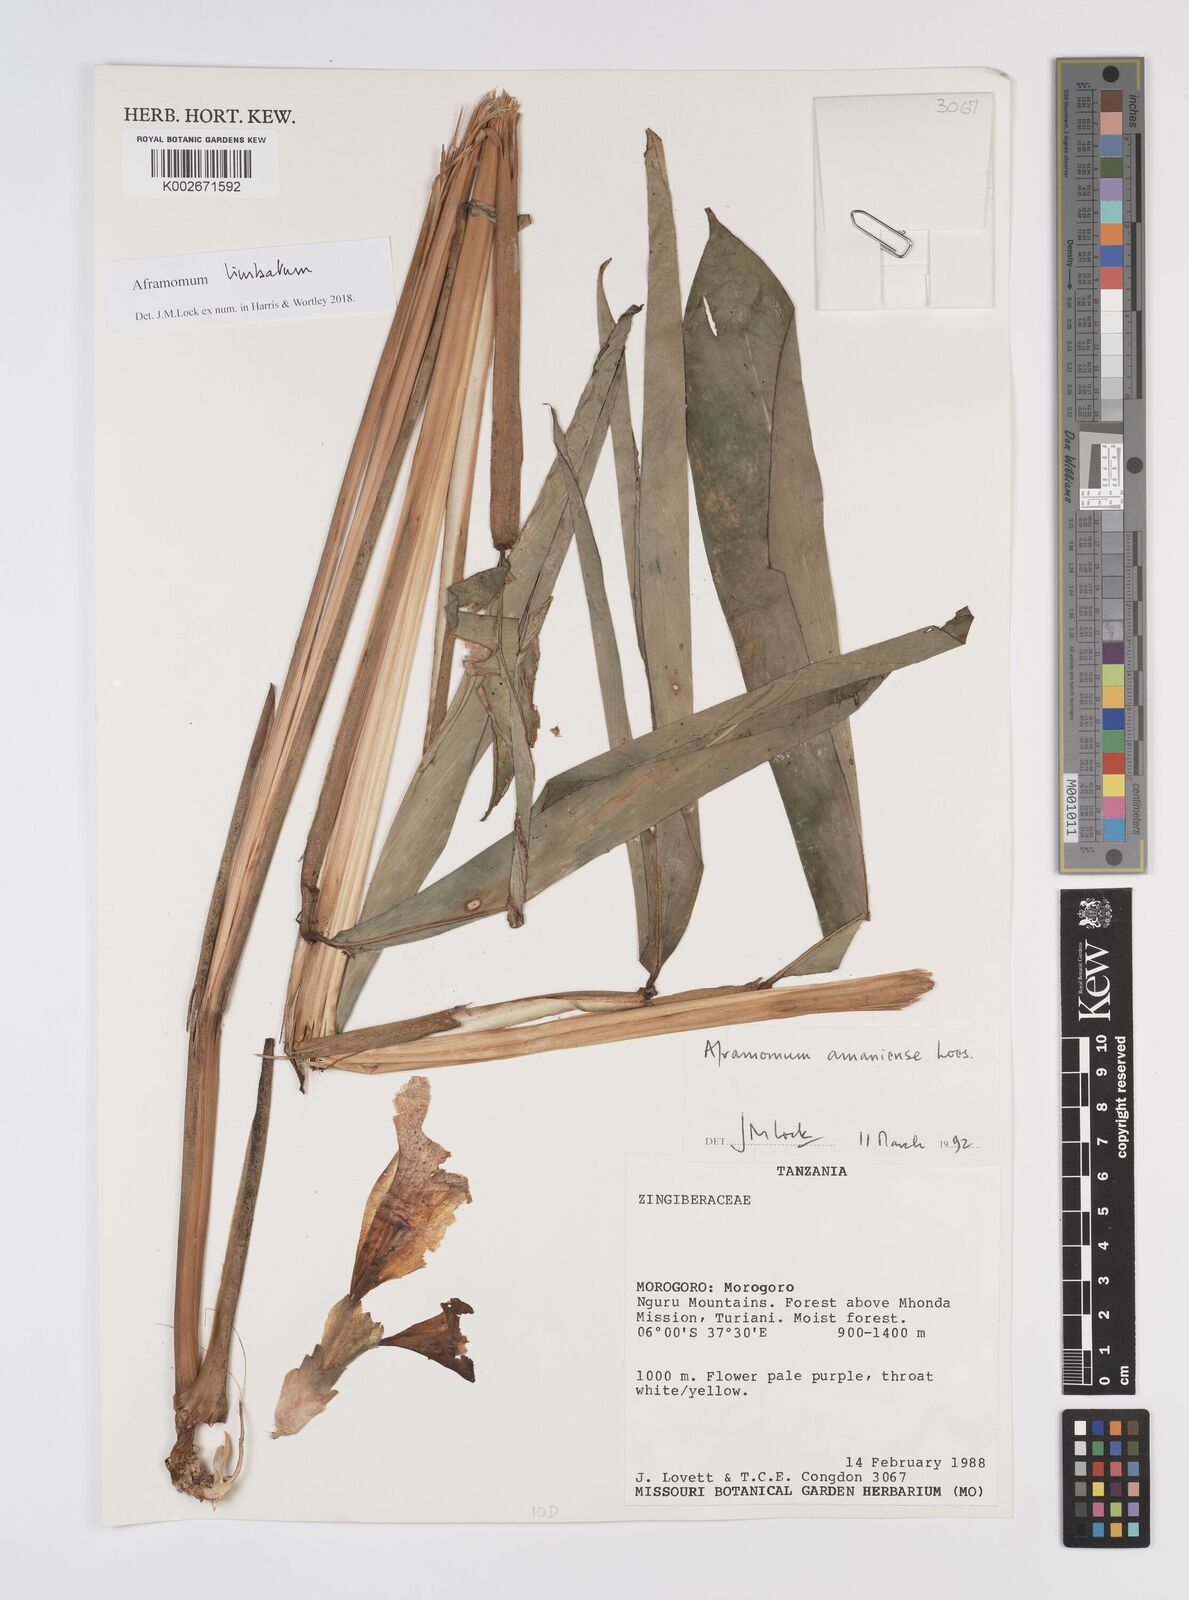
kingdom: Plantae
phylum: Tracheophyta
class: Liliopsida
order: Zingiberales
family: Zingiberaceae
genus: Aframomum
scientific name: Aframomum limbatum
